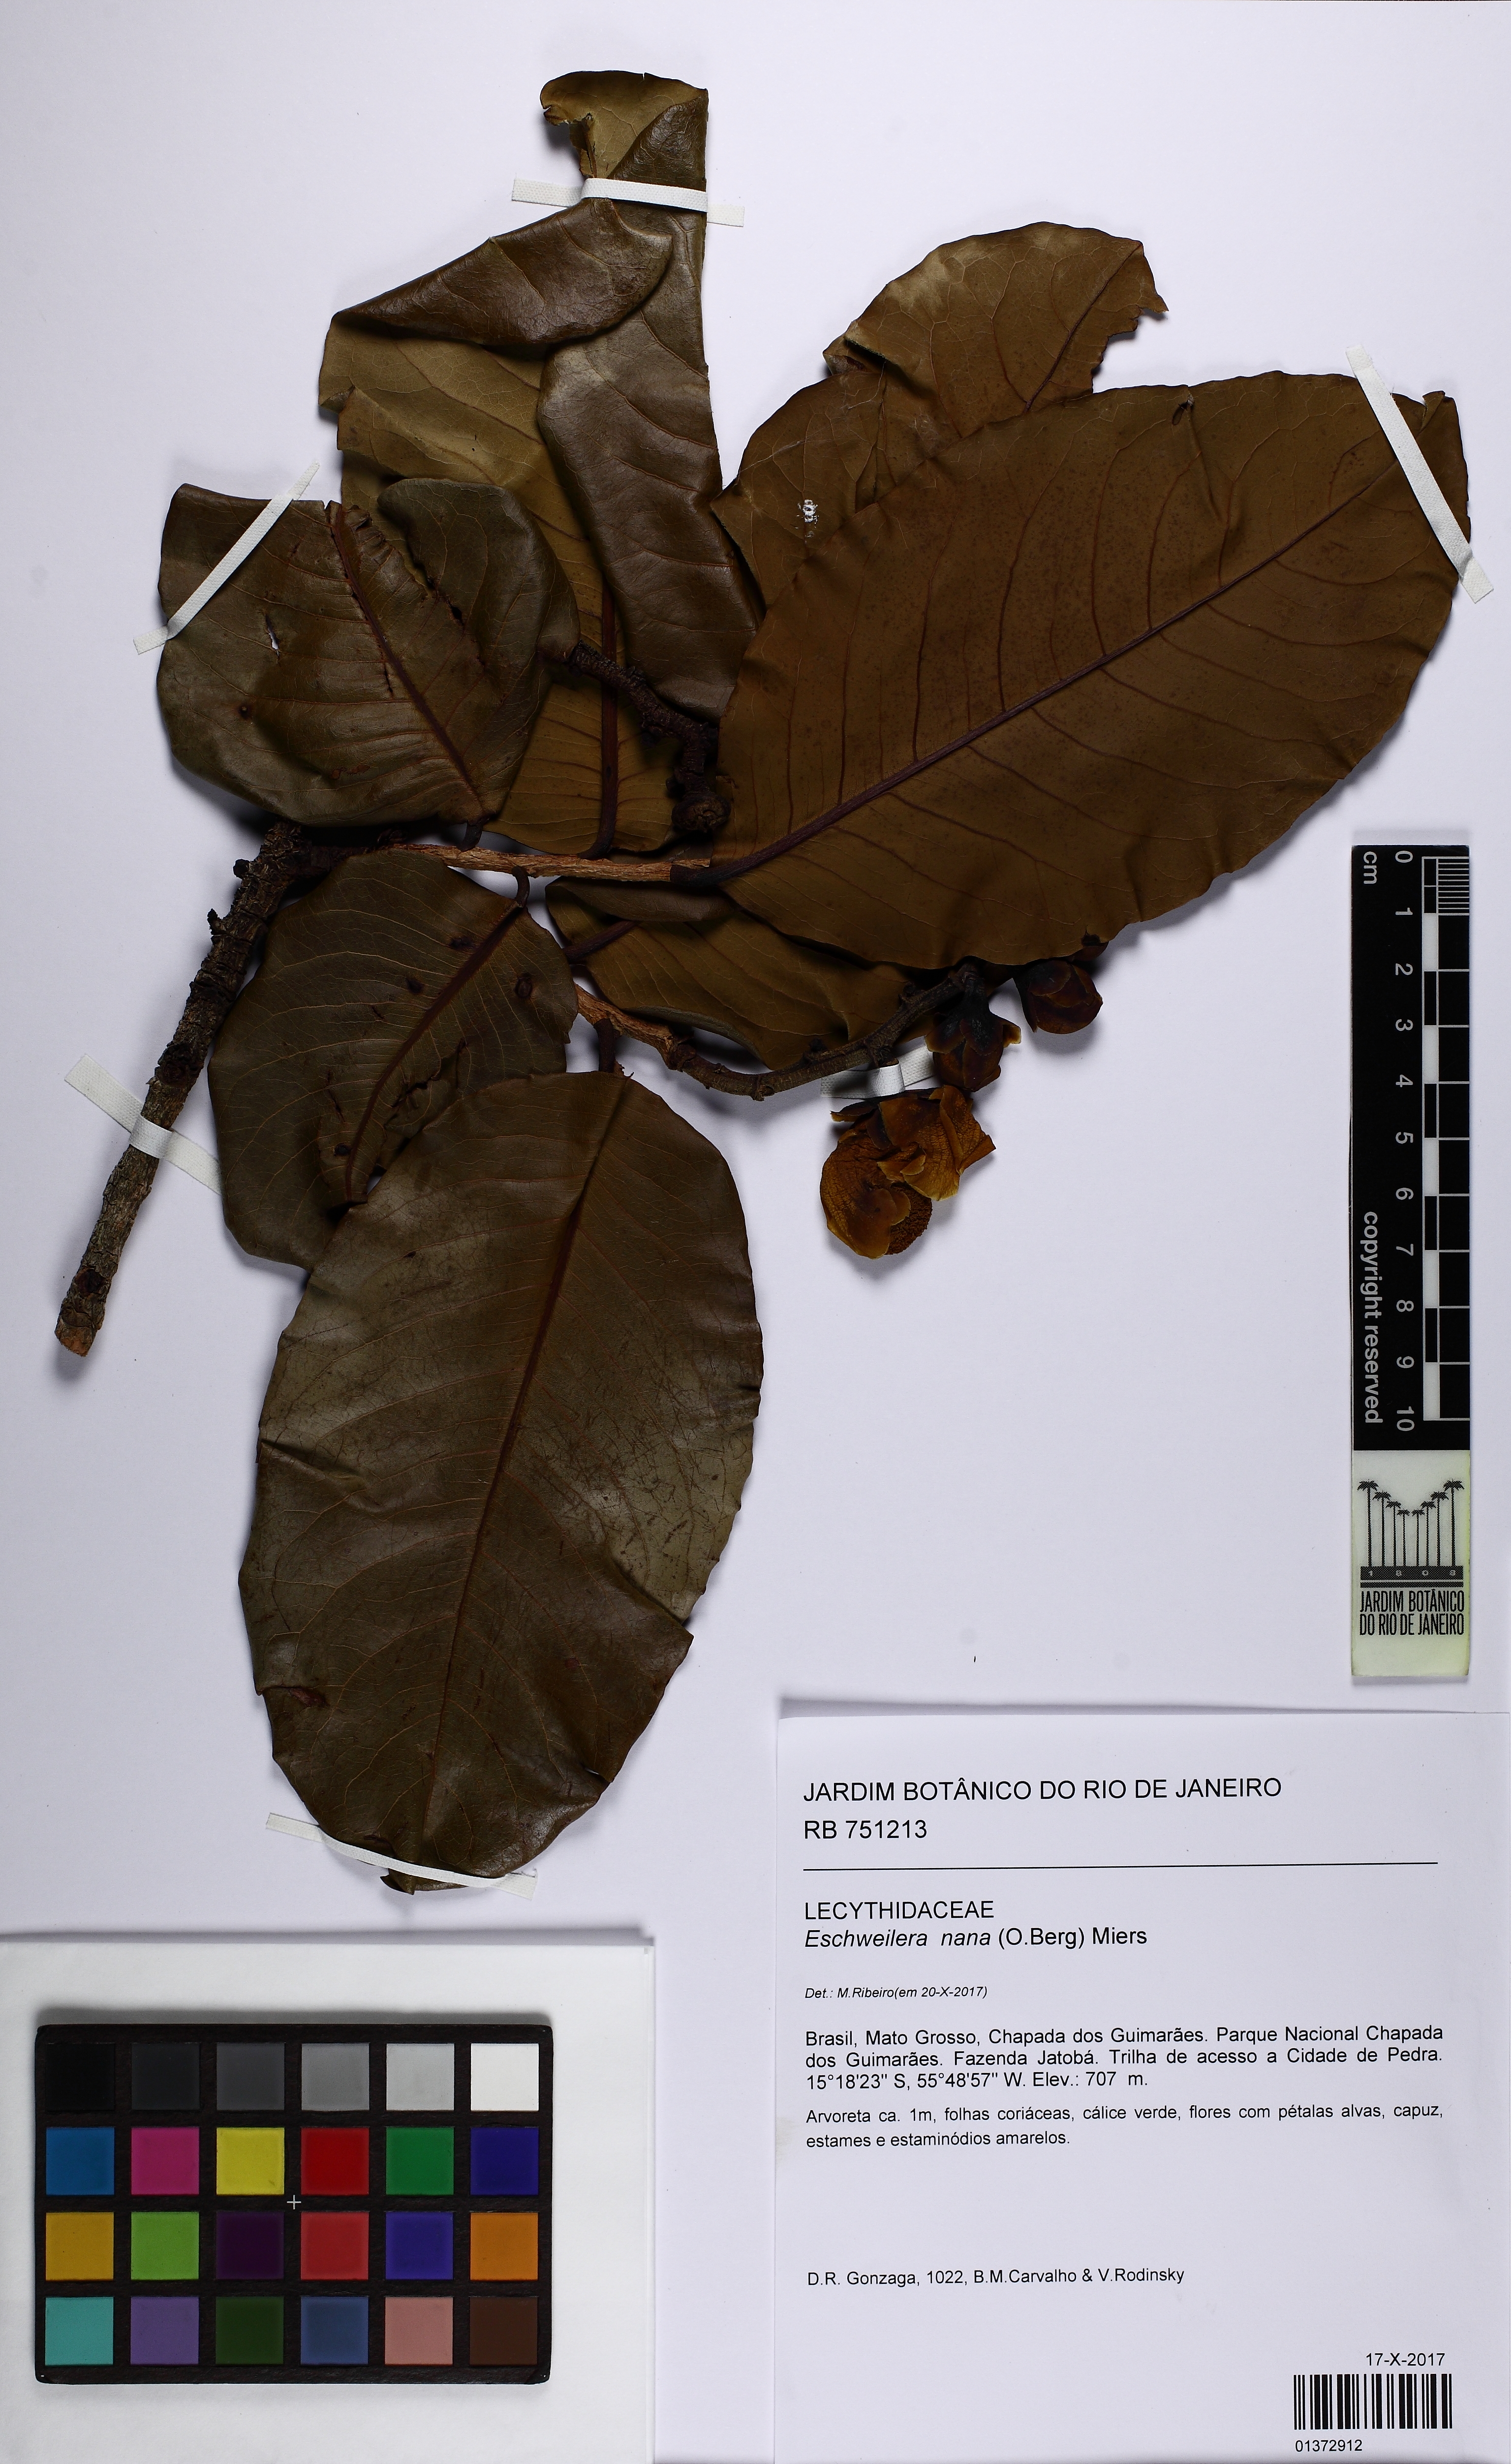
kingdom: Plantae
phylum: Tracheophyta
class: Magnoliopsida
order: Ericales
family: Lecythidaceae
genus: Eschweilera
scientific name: Eschweilera nana
